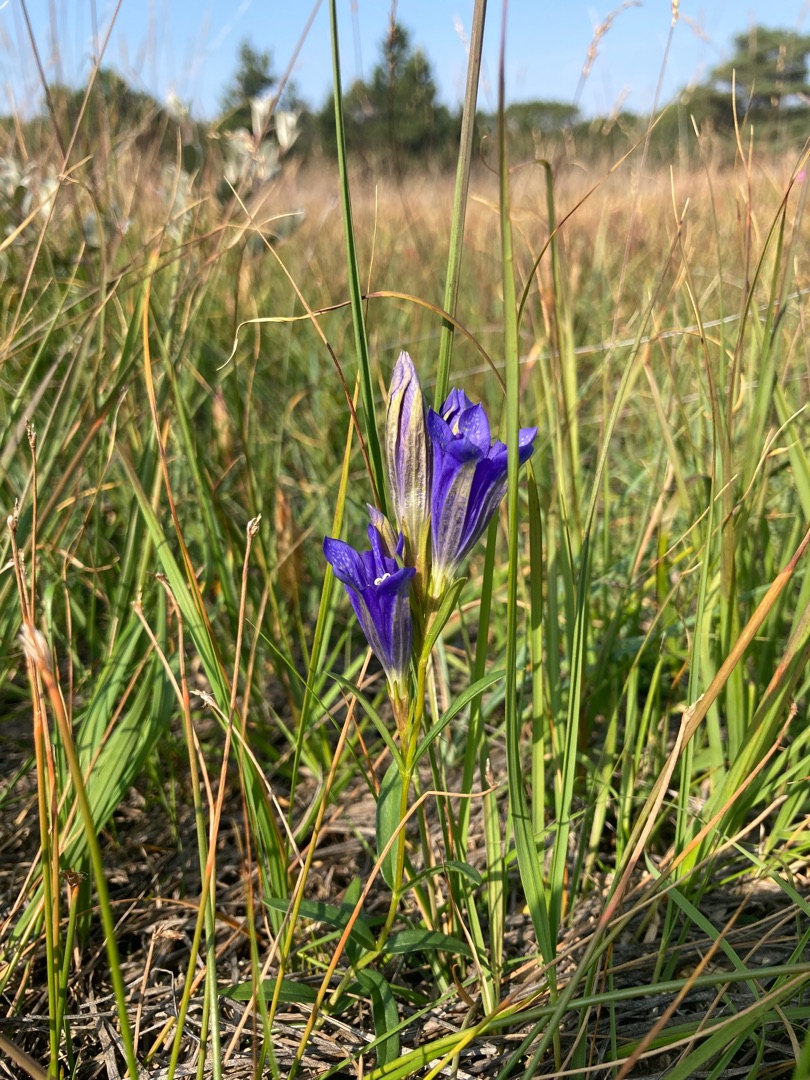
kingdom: Plantae
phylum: Tracheophyta
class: Magnoliopsida
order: Gentianales
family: Gentianaceae
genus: Gentiana
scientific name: Gentiana pneumonanthe
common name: Klokke-ensian
